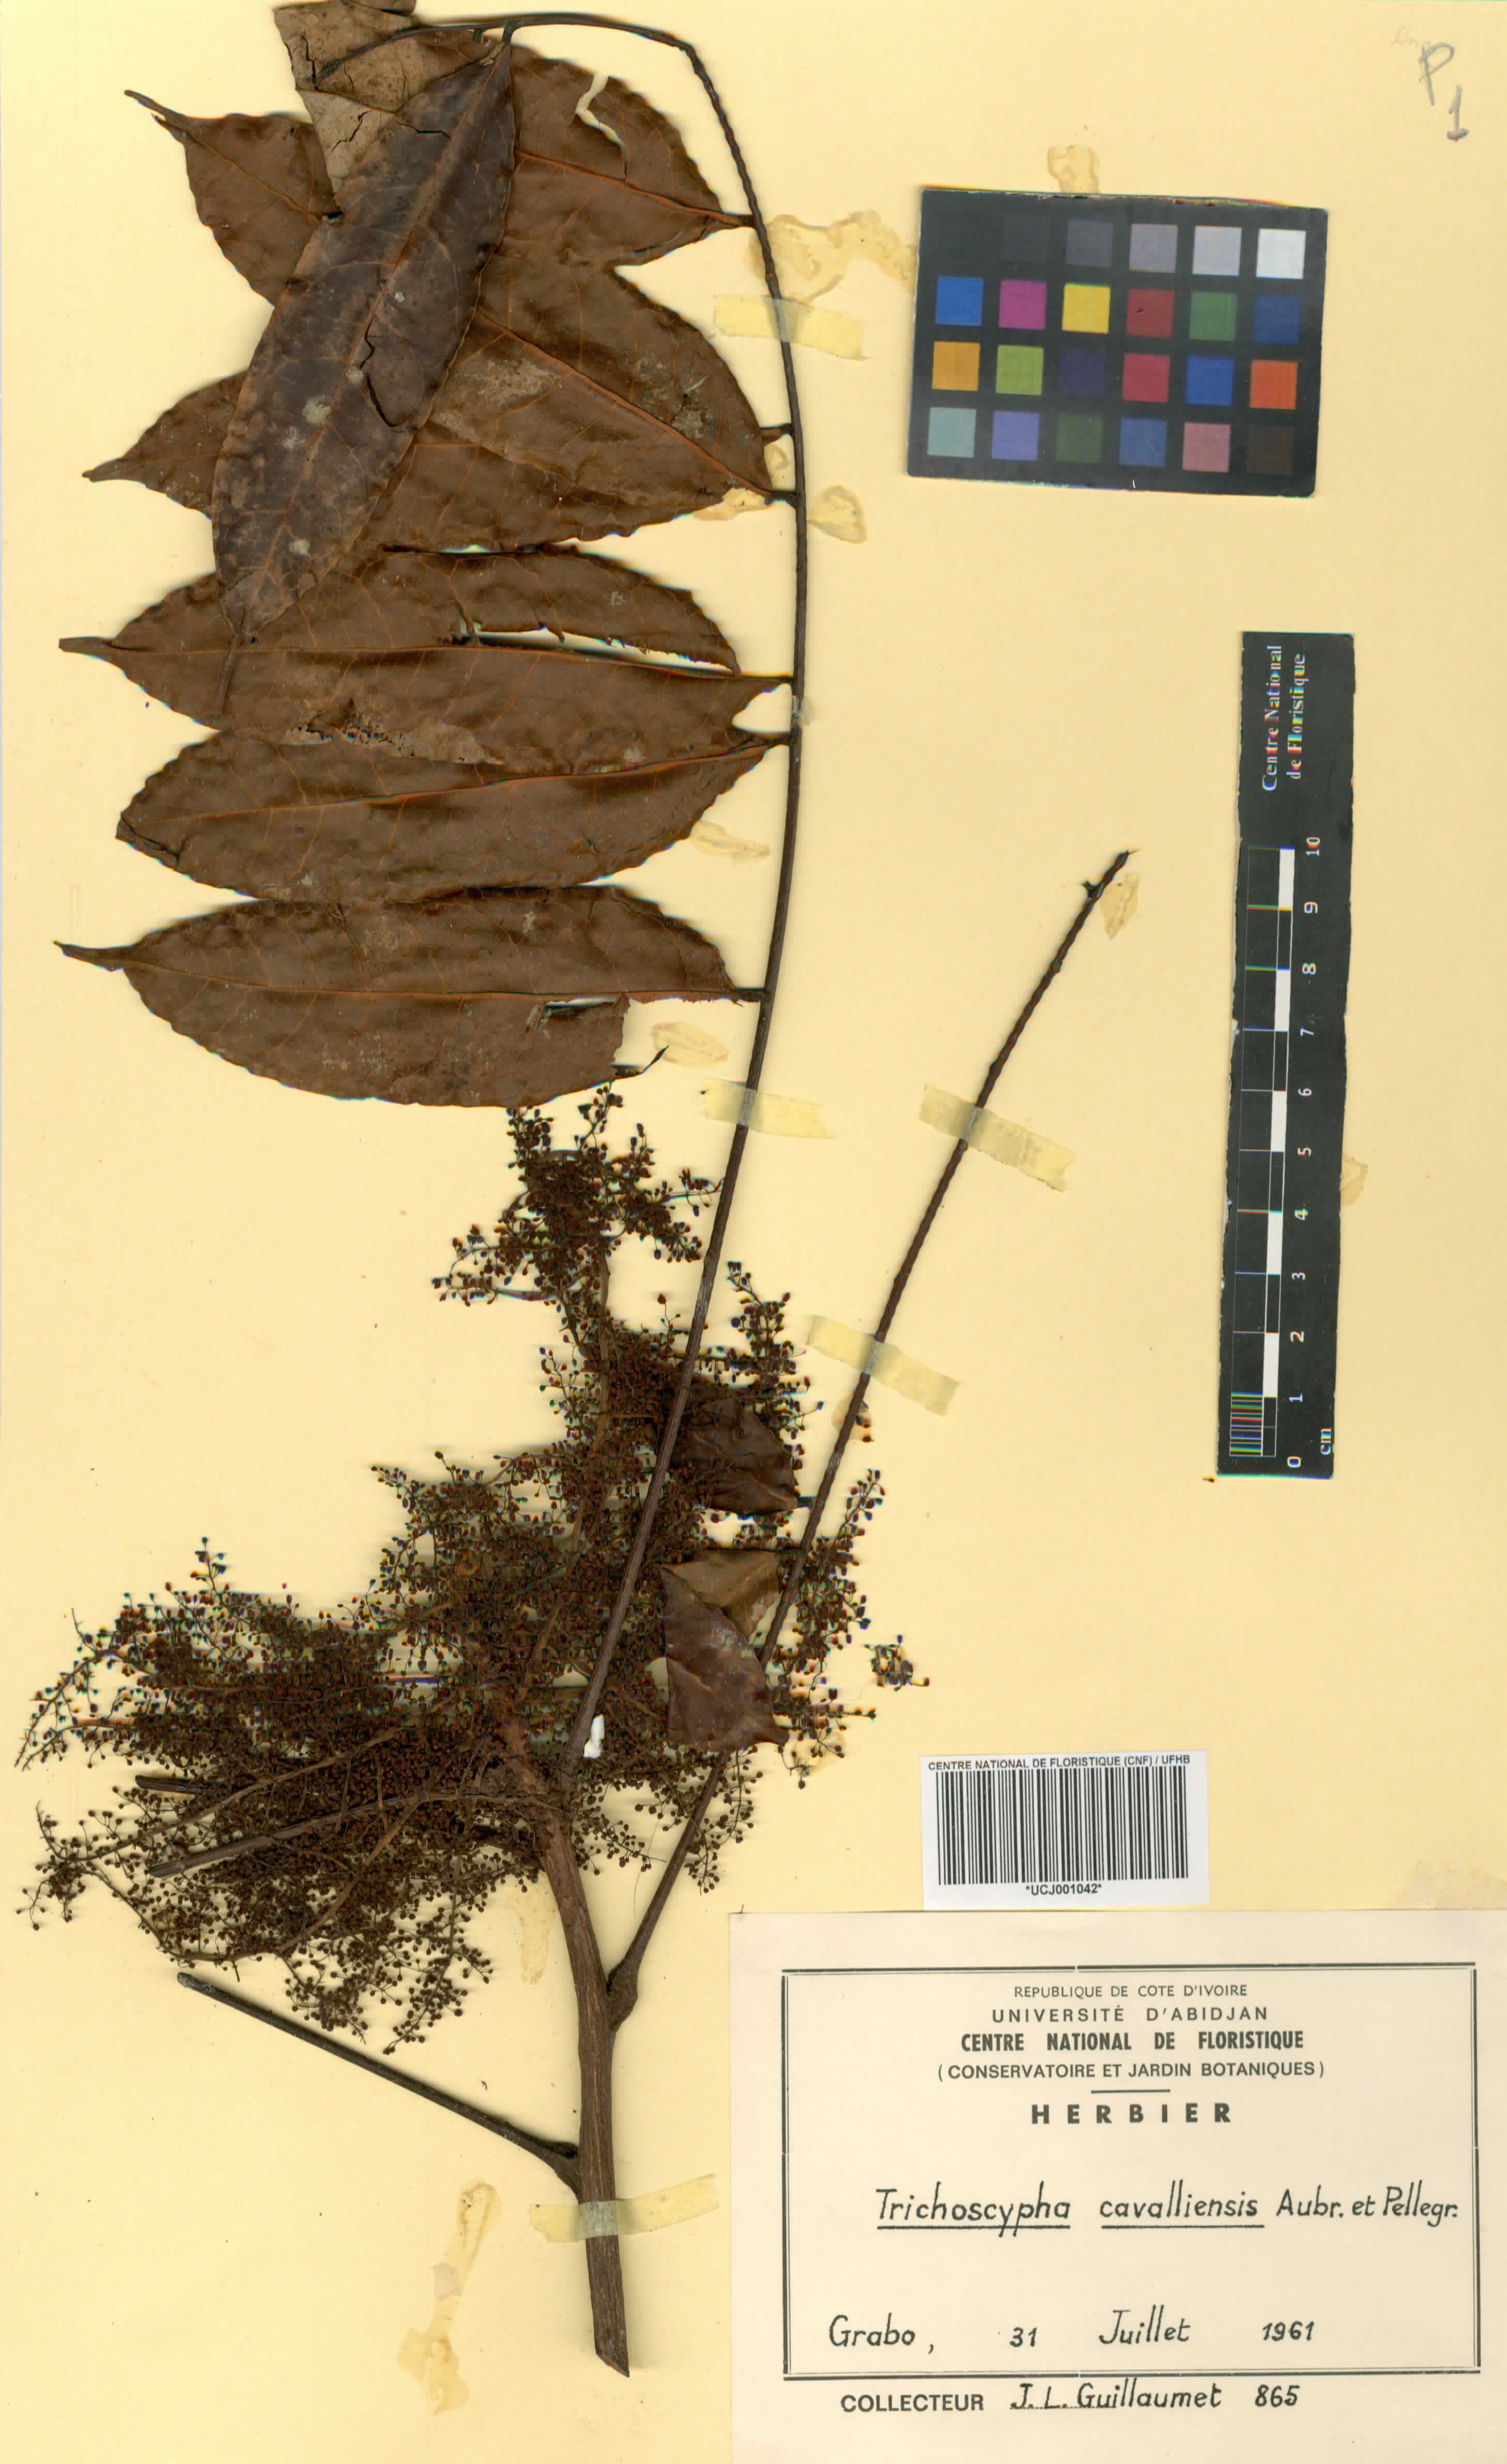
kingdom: Plantae
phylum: Tracheophyta
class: Magnoliopsida
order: Sapindales
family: Anacardiaceae
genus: Trichoscypha
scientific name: Trichoscypha cavalliensis
